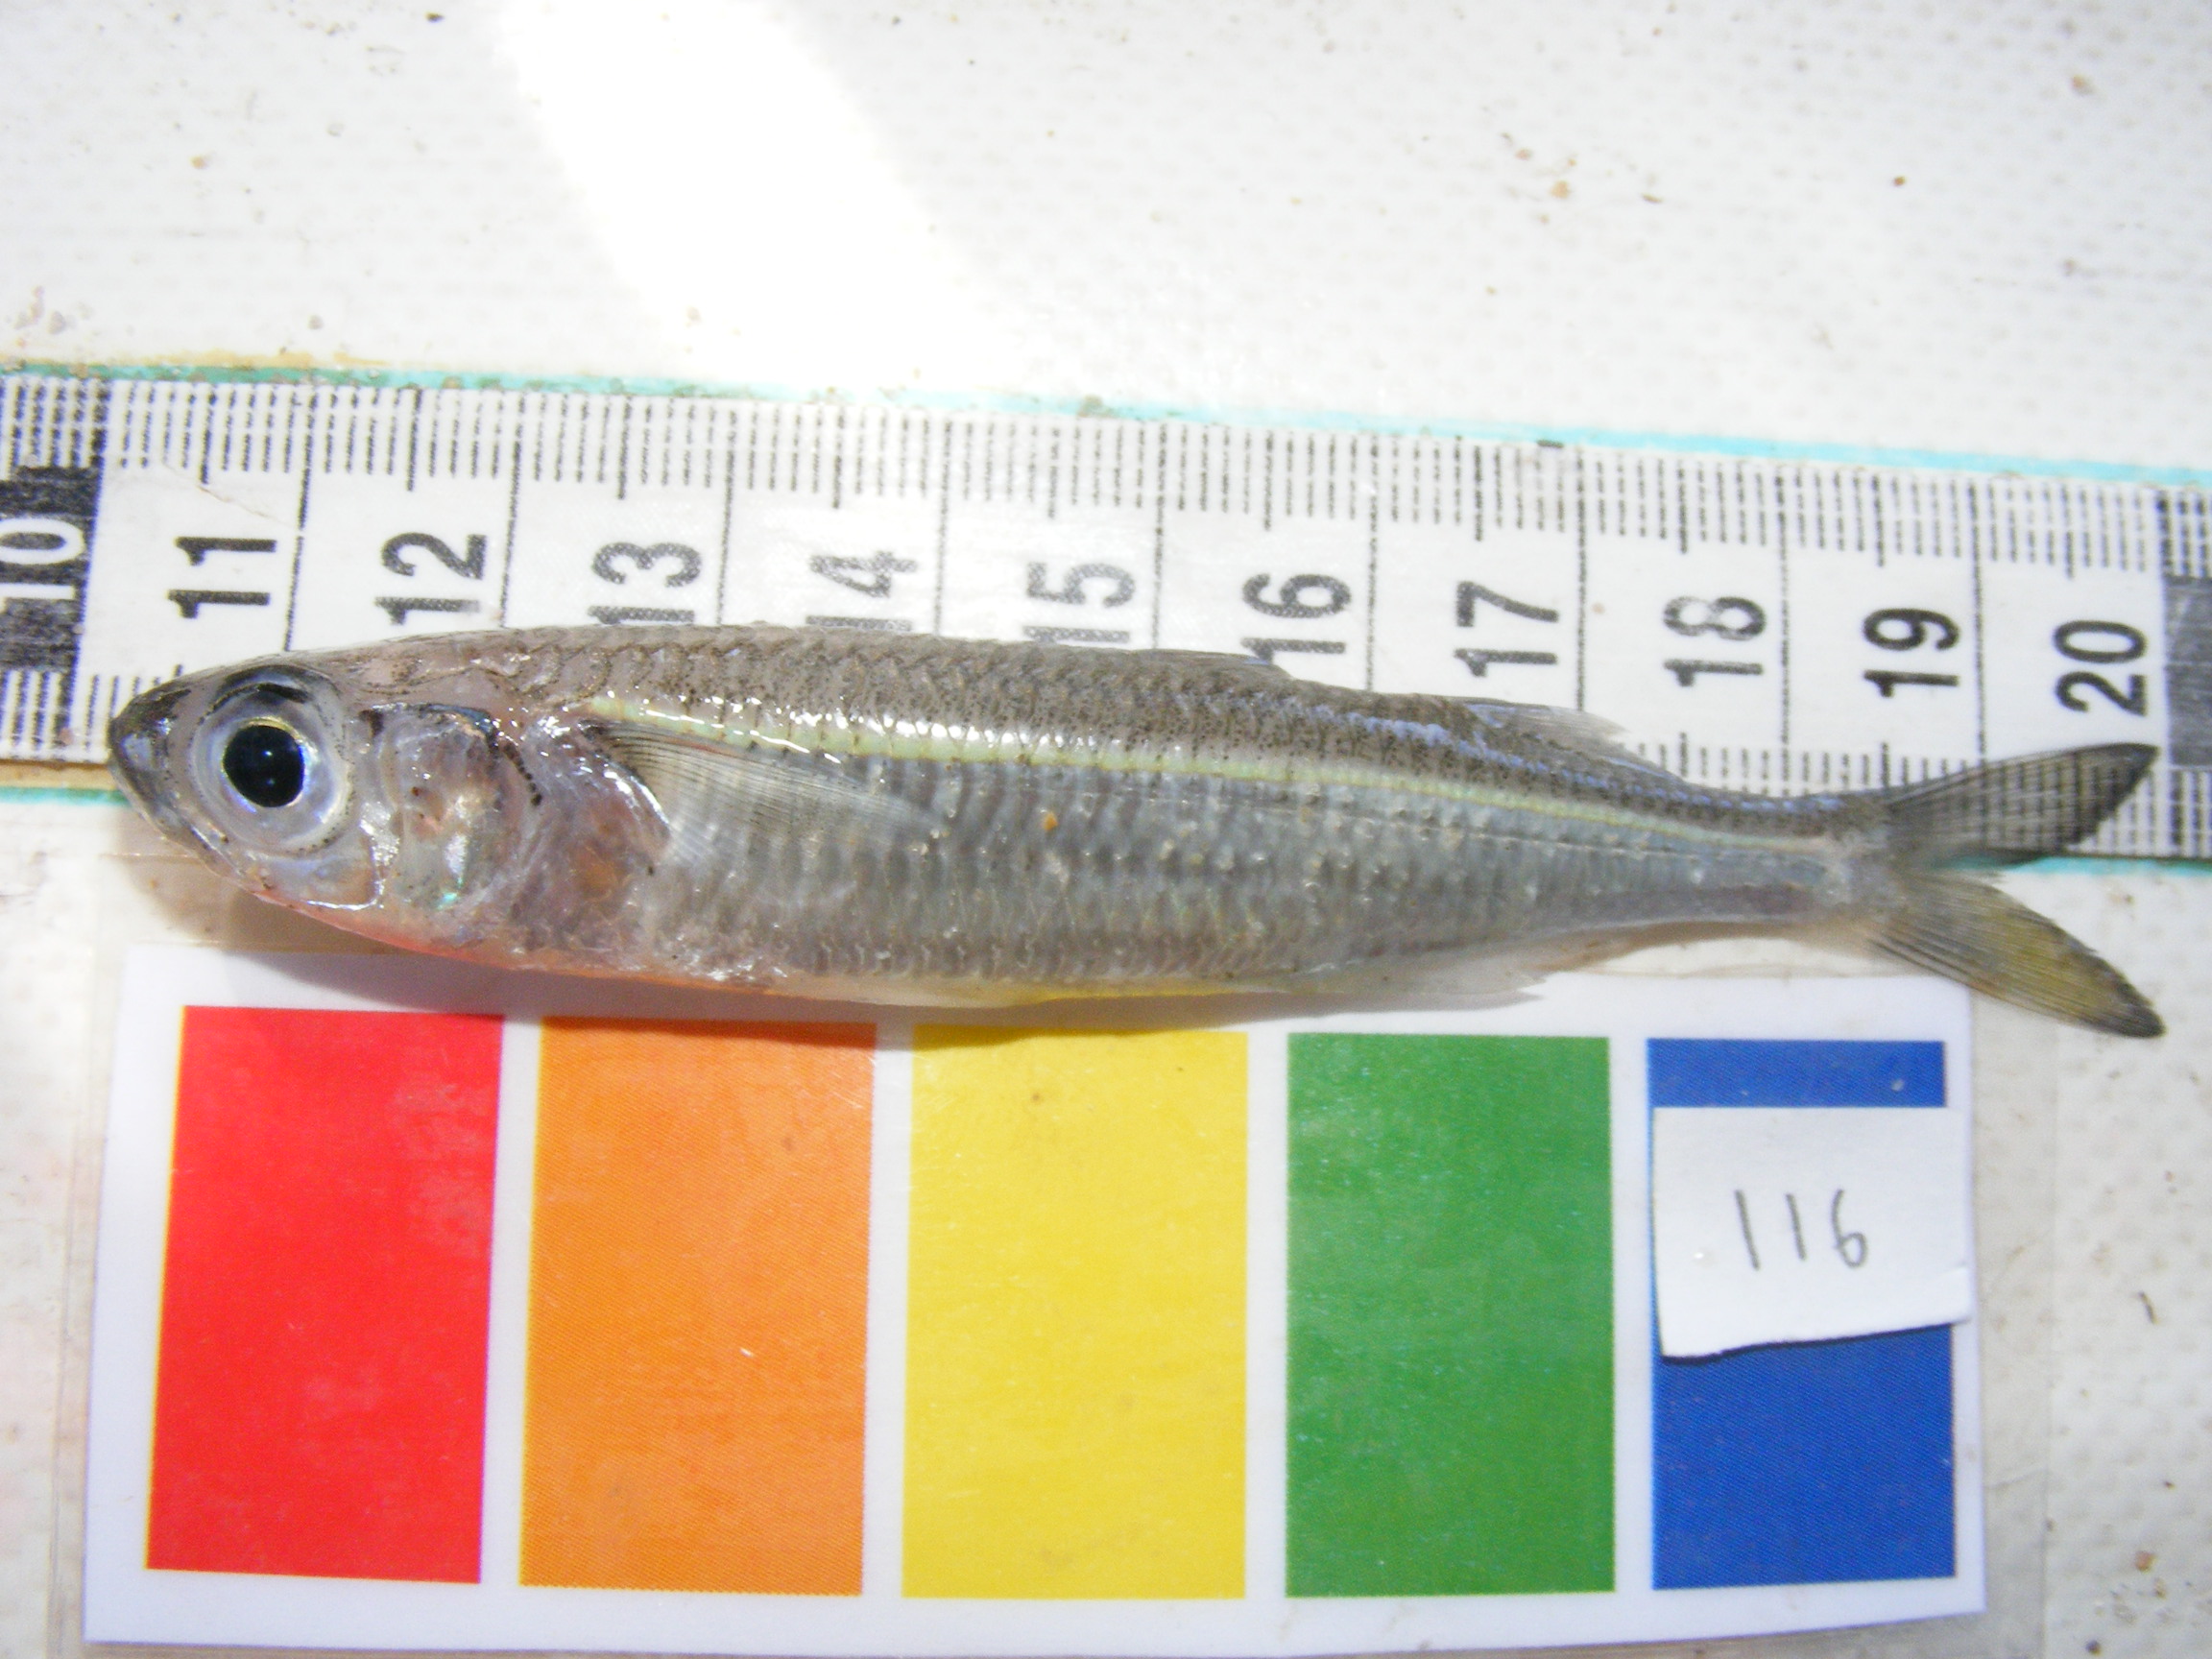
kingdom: Animalia
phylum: Chordata
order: Atheriniformes
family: Atherinidae
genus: Atherinomorus
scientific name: Atherinomorus lacunosus
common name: Hardyhead silverside
